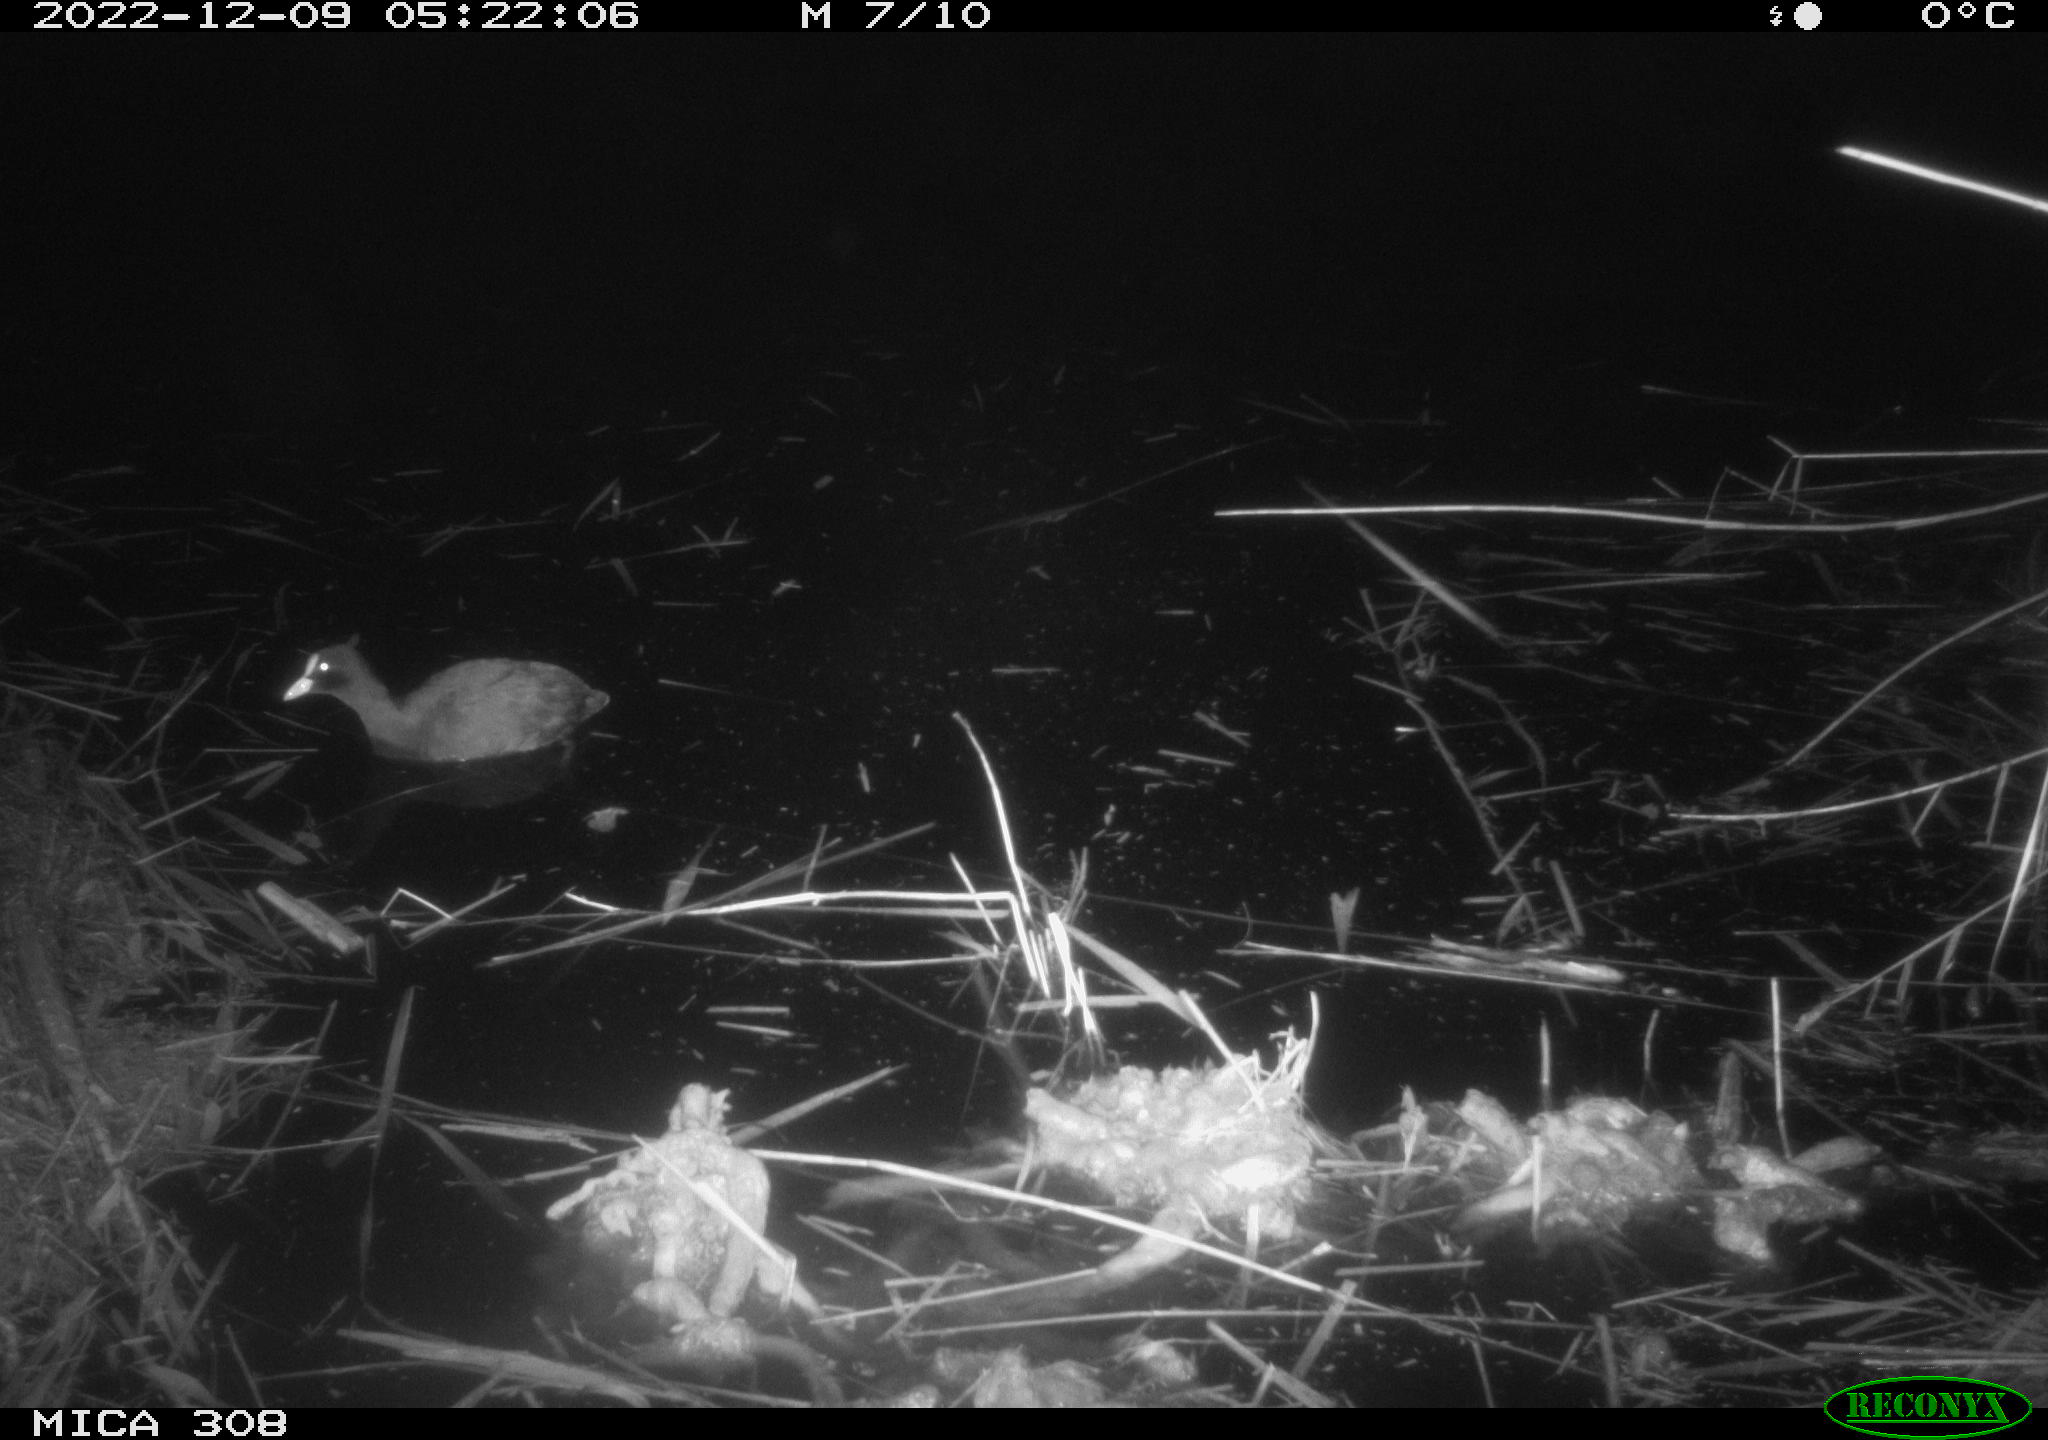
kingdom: Animalia
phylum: Chordata
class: Aves
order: Gruiformes
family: Rallidae
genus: Fulica
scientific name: Fulica atra
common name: Eurasian coot
